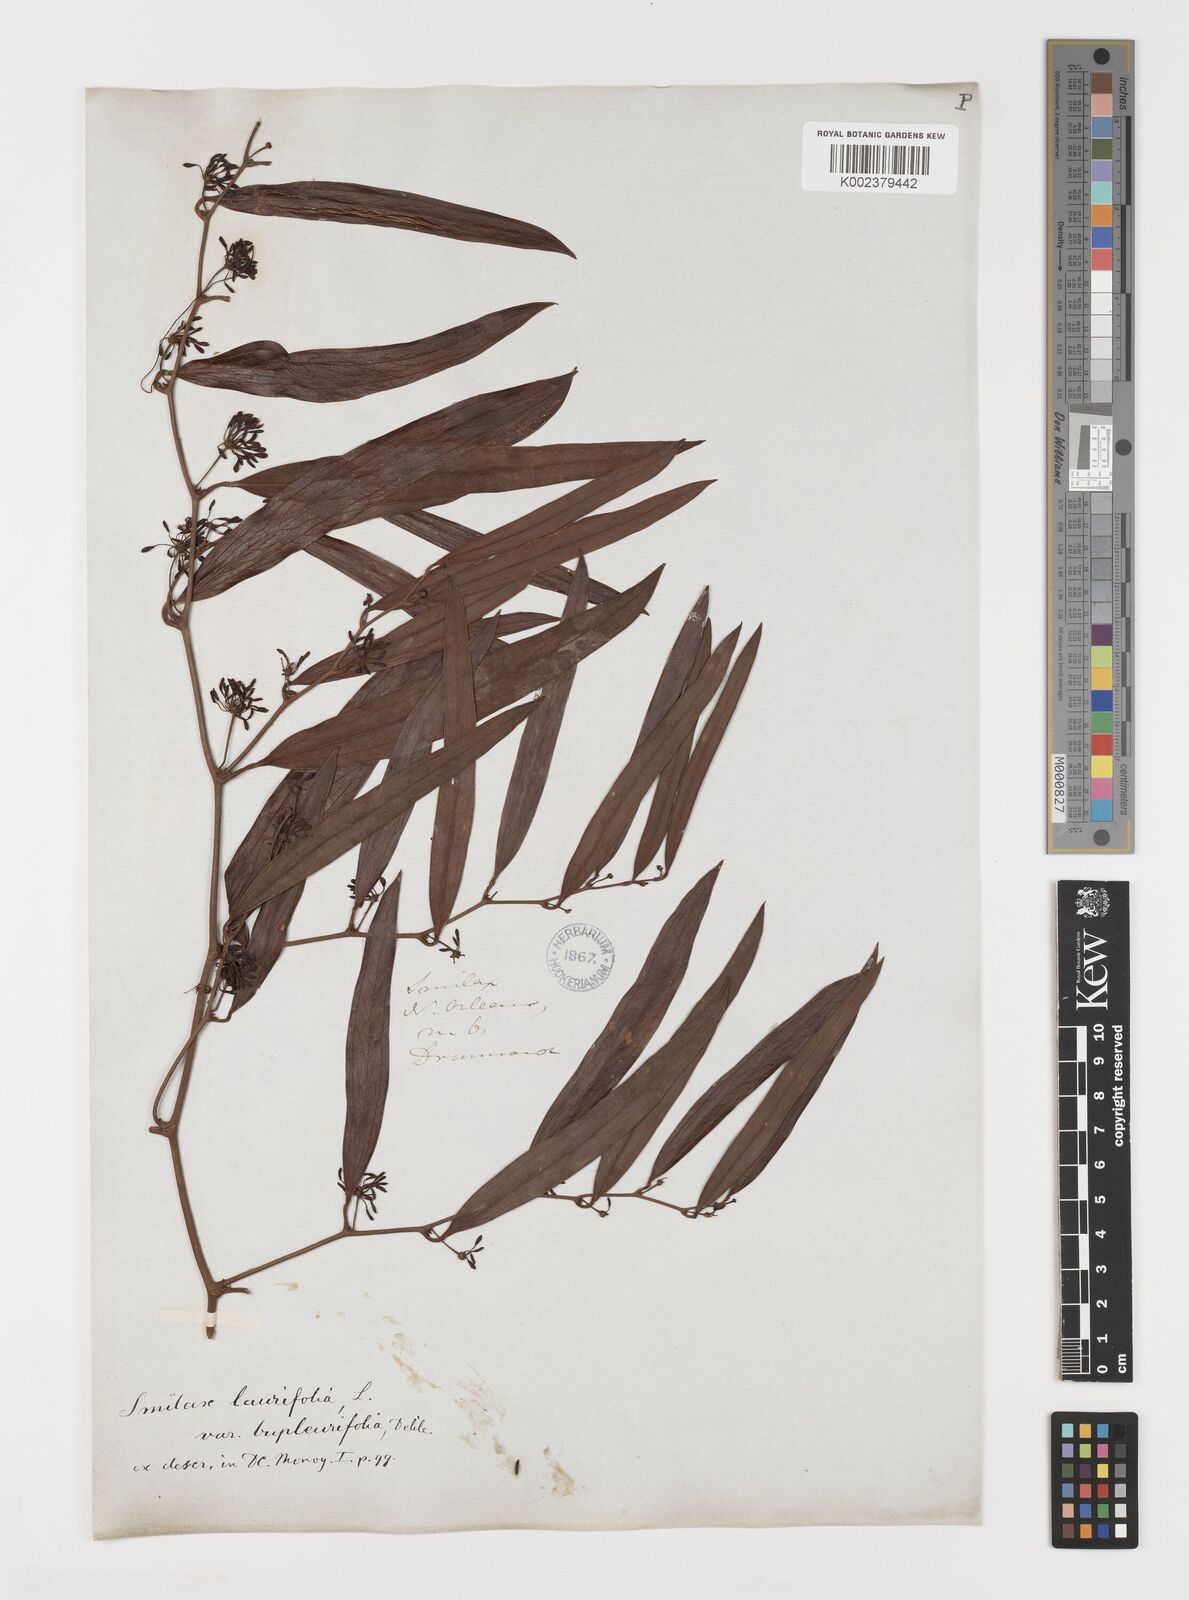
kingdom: Plantae
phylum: Tracheophyta
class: Liliopsida
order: Liliales
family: Smilacaceae
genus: Smilax
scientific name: Smilax laurifolia
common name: Bamboovine
